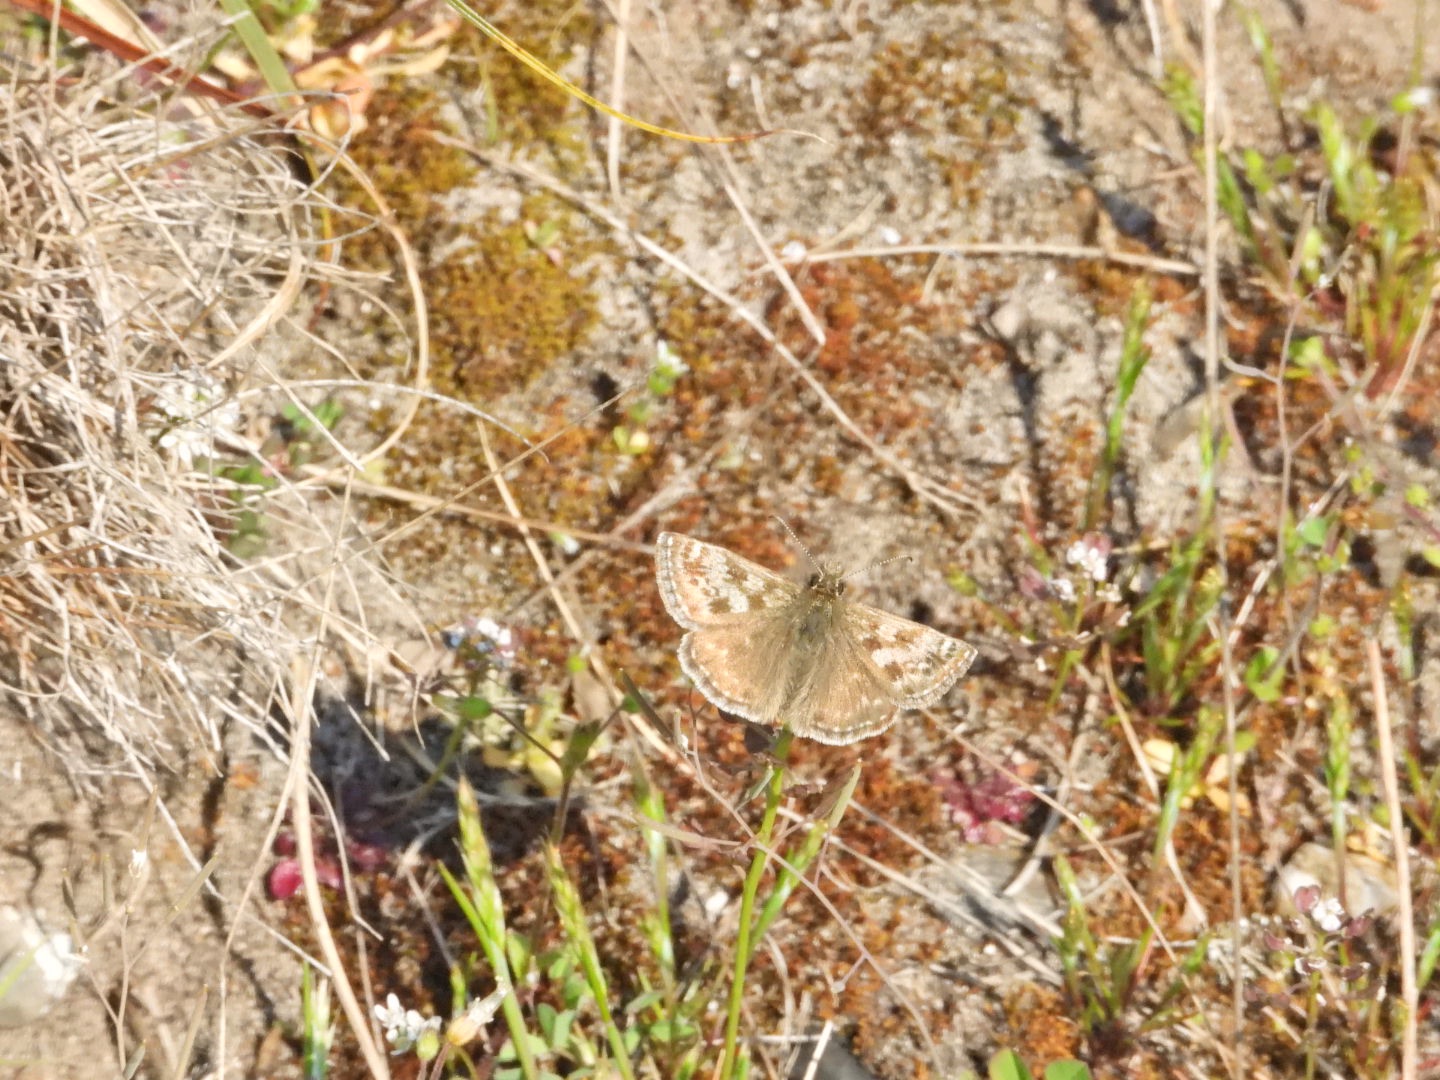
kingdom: Animalia
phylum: Arthropoda
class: Insecta
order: Lepidoptera
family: Hesperiidae
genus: Erynnis
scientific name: Erynnis tages
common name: Gråbåndet bredpande
